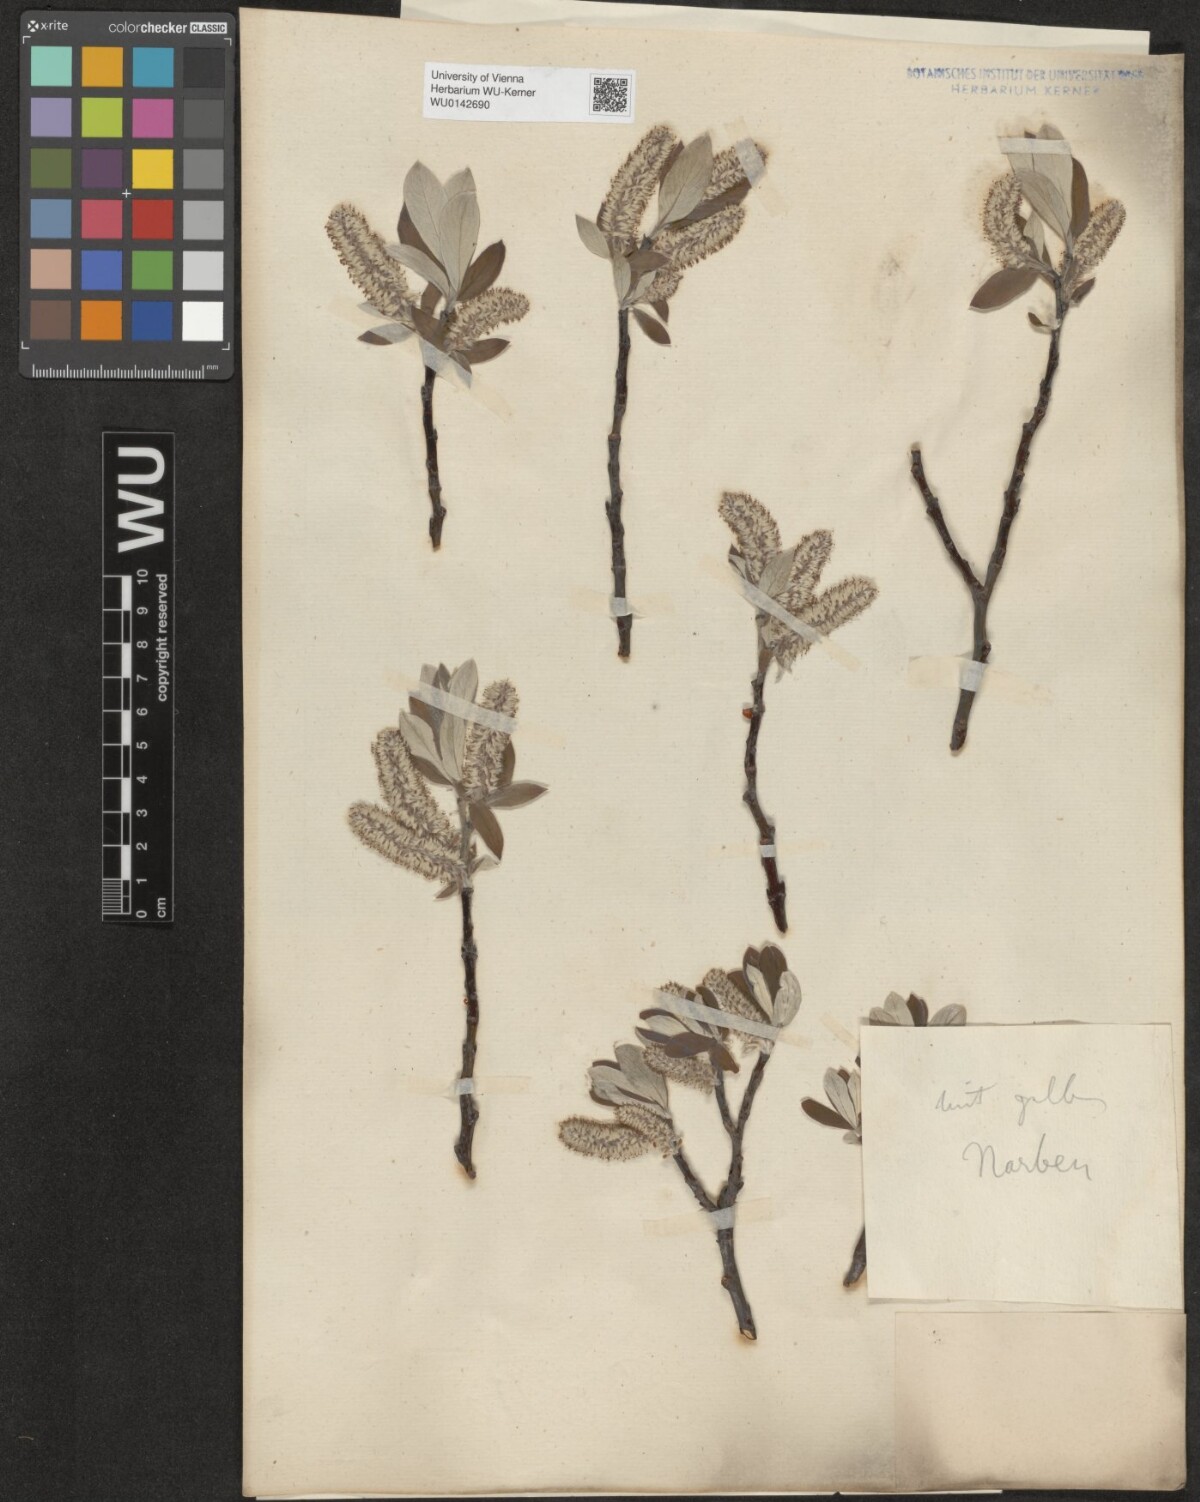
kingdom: Plantae
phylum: Tracheophyta
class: Magnoliopsida
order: Malpighiales
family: Salicaceae
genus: Salix
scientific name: Salix helvetica
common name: Swiss willow
